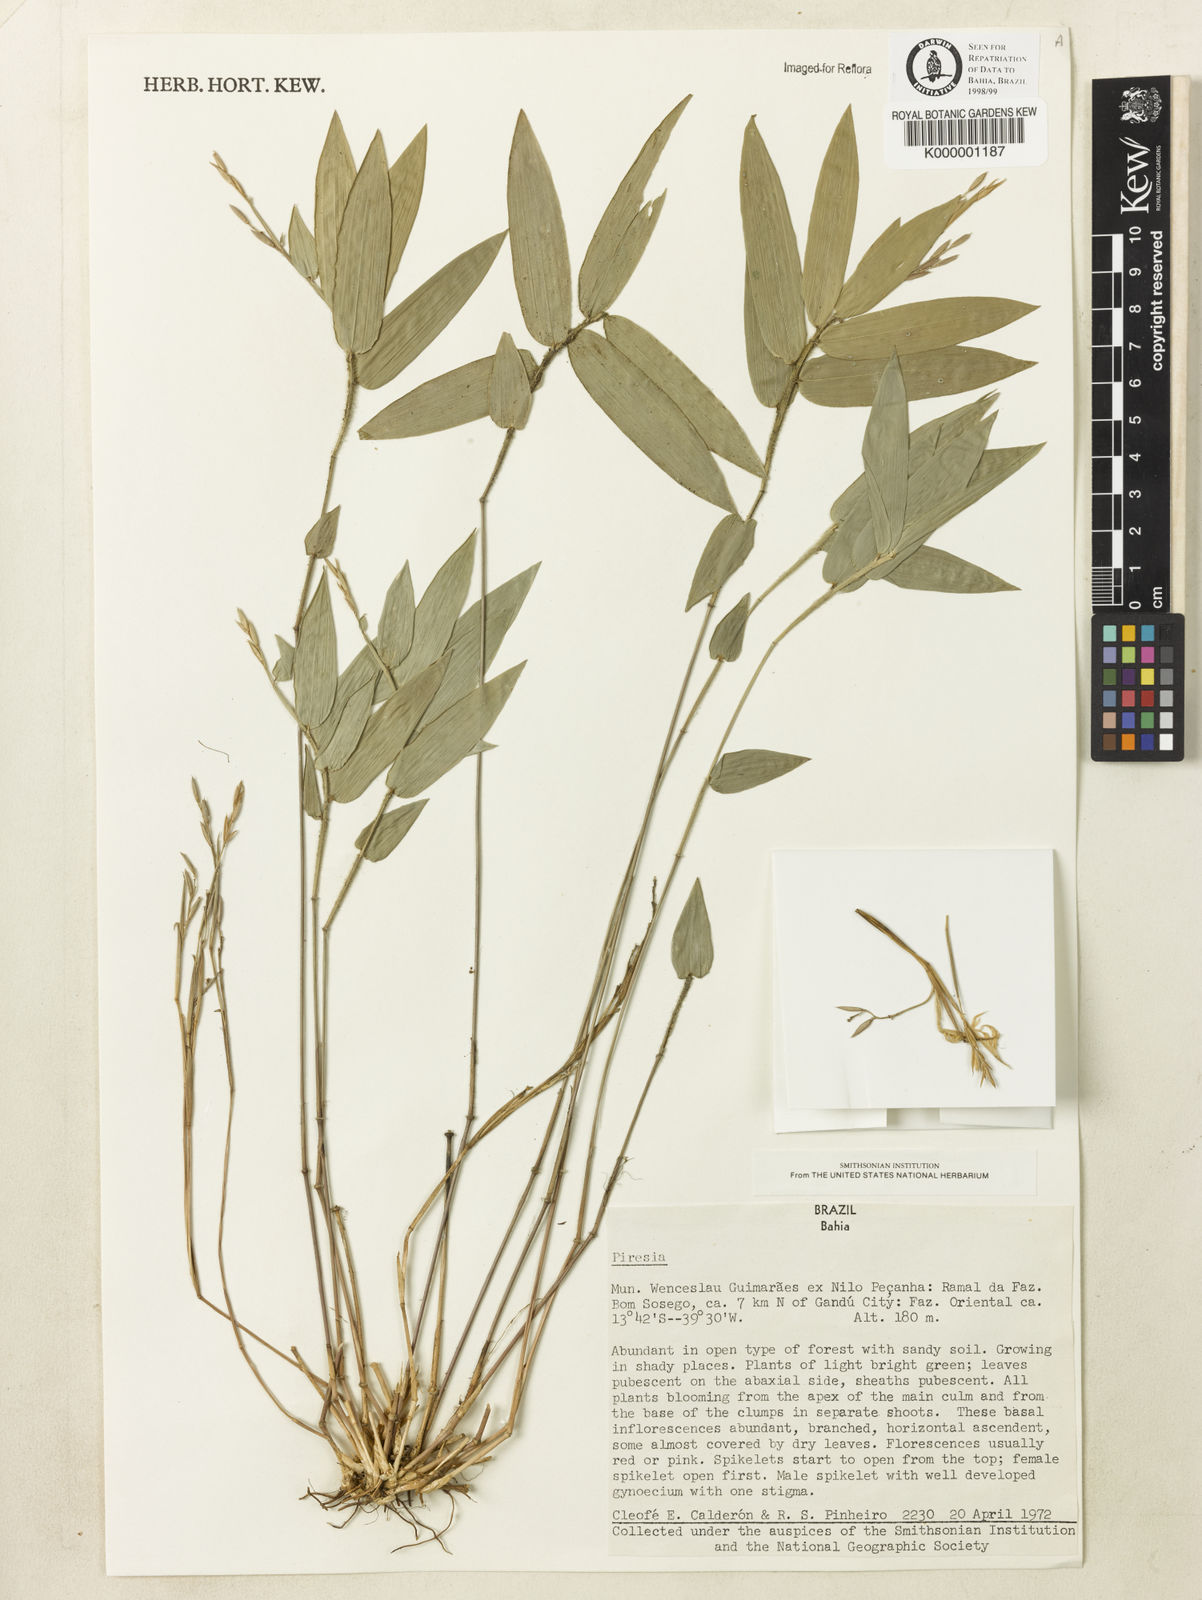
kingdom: Plantae
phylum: Tracheophyta
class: Liliopsida
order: Poales
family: Poaceae
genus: Piresia
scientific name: Piresia
